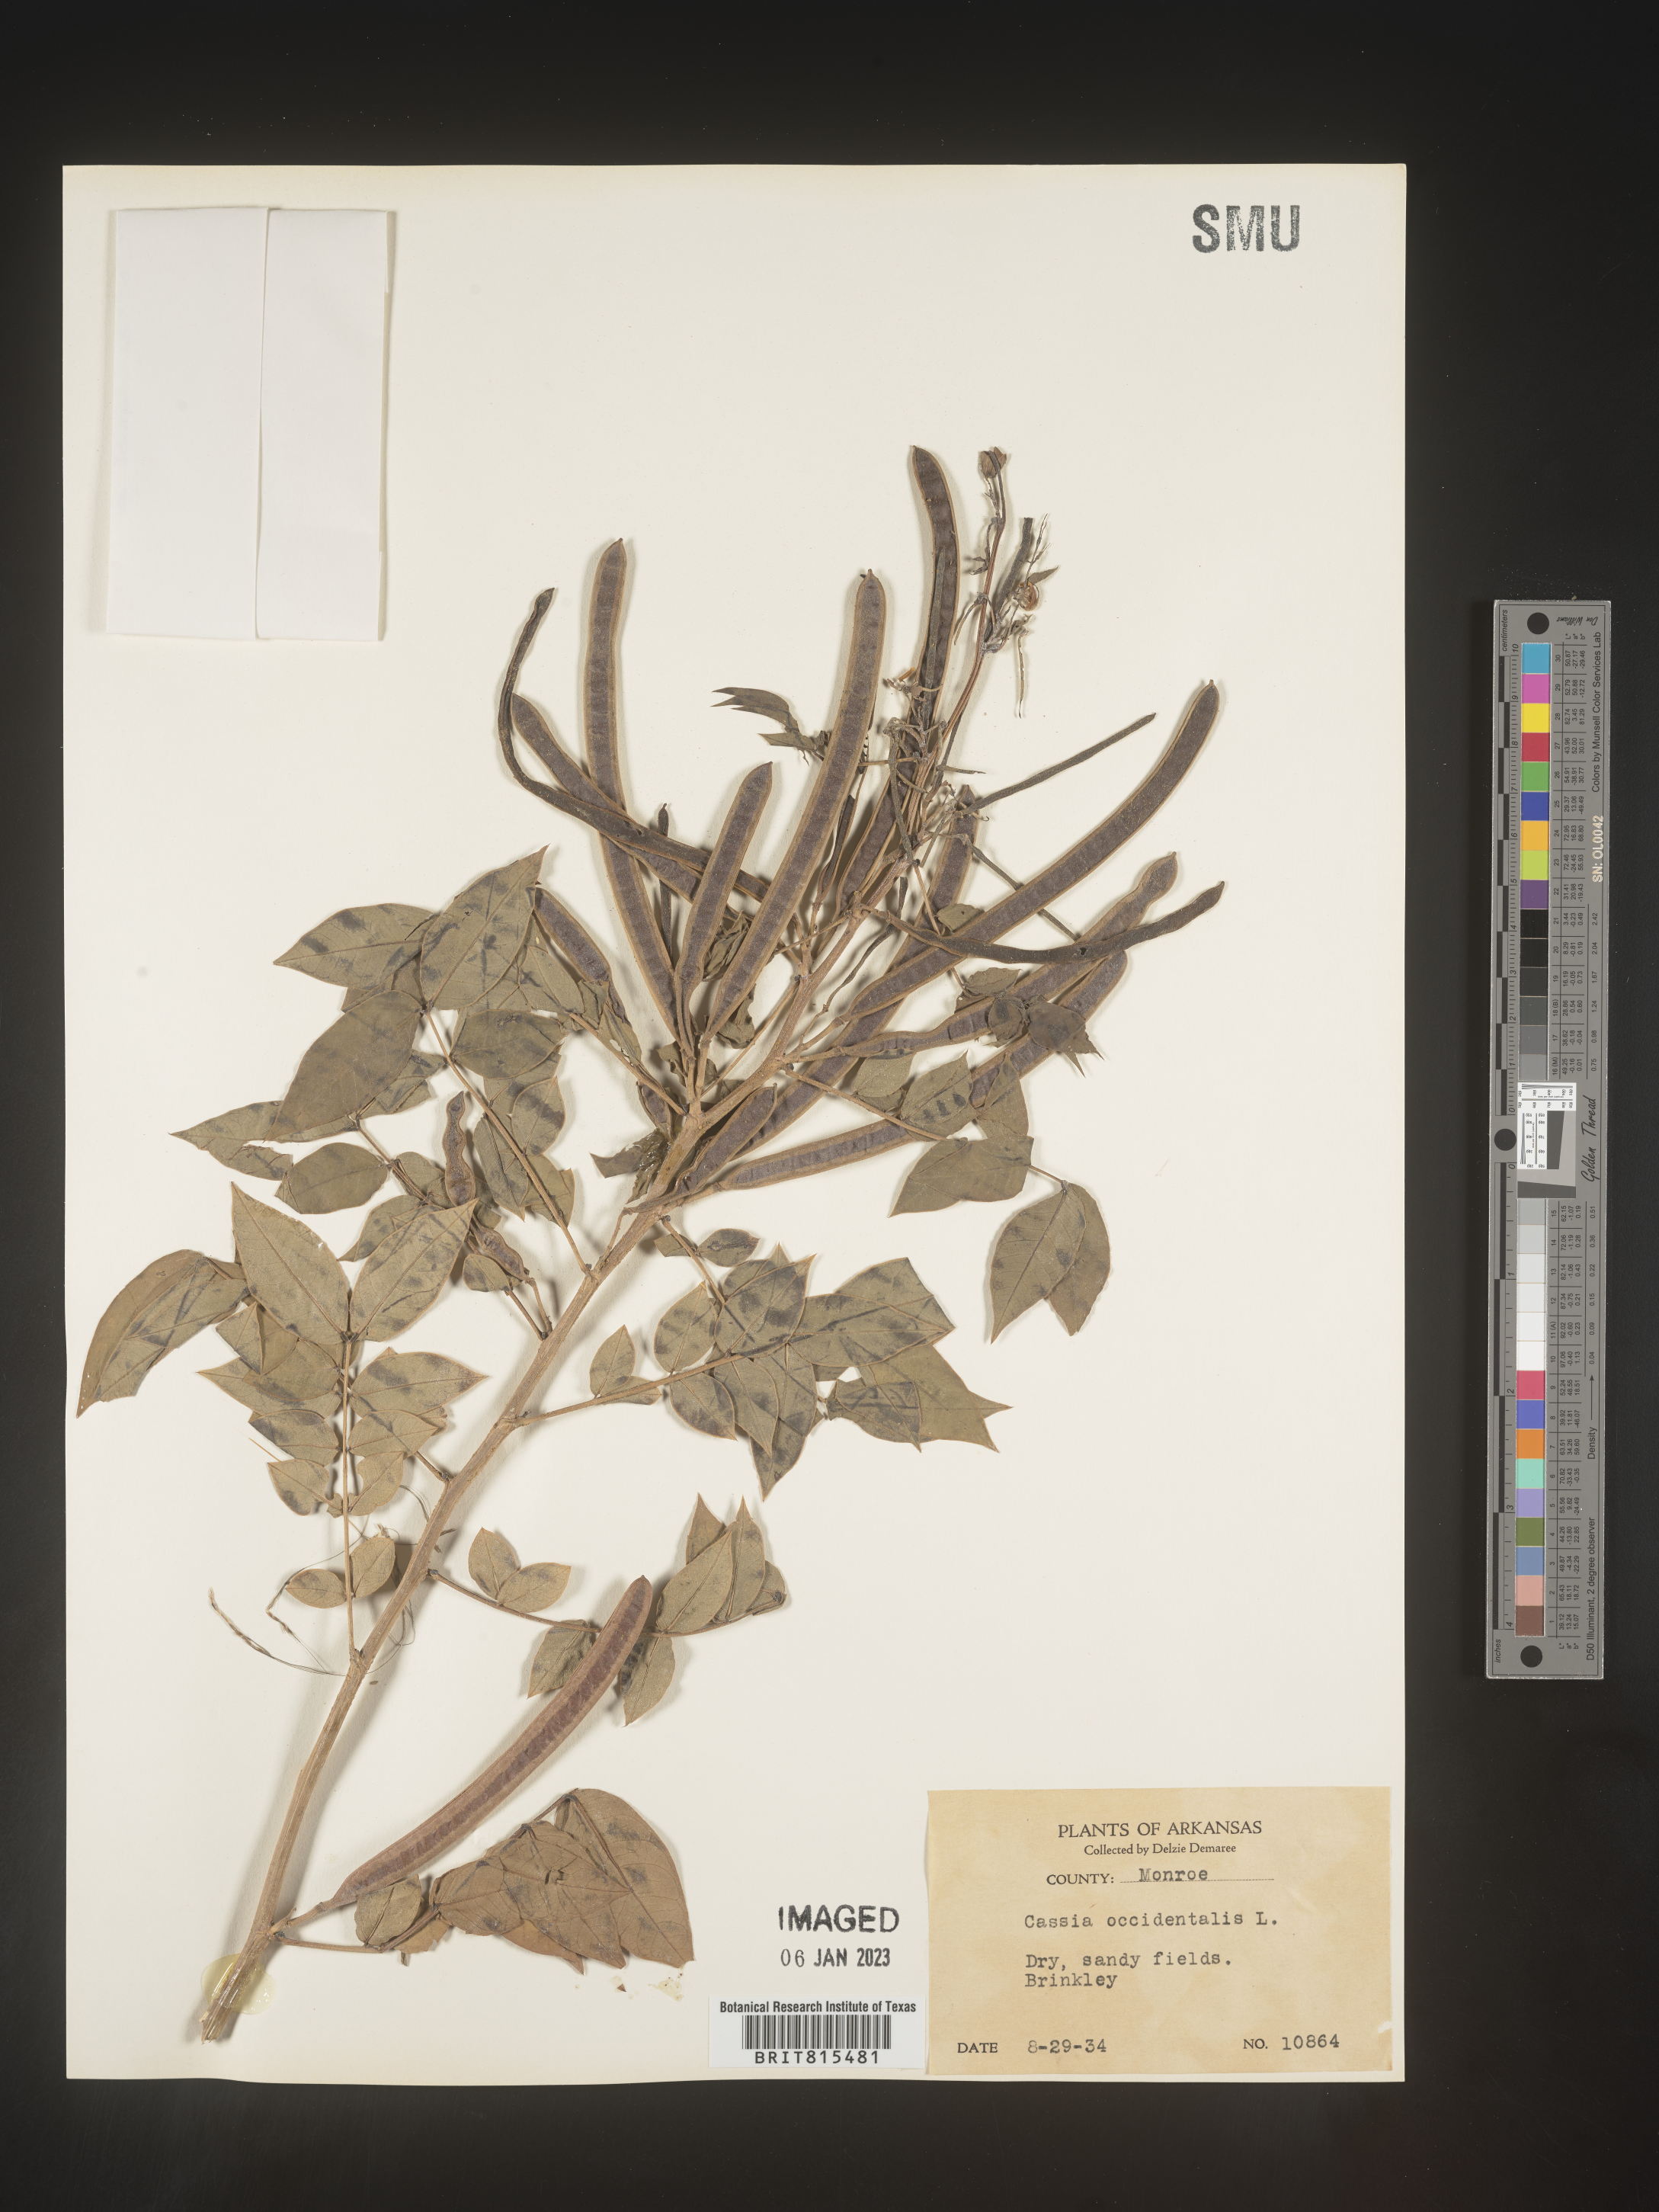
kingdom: Plantae
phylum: Tracheophyta
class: Magnoliopsida
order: Fabales
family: Fabaceae
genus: Senna
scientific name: Senna occidentalis
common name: Septicweed
